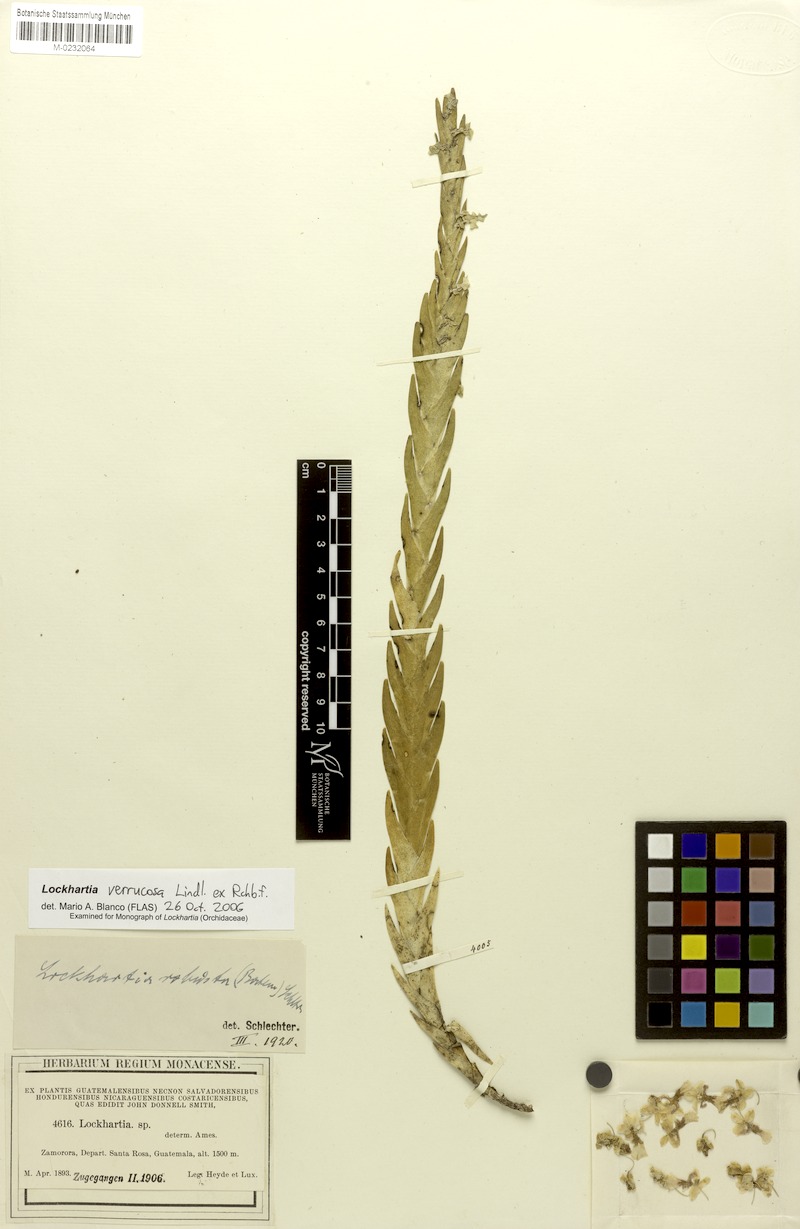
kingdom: Plantae
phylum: Tracheophyta
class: Liliopsida
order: Asparagales
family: Orchidaceae
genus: Lockhartia
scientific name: Lockhartia oerstedii
